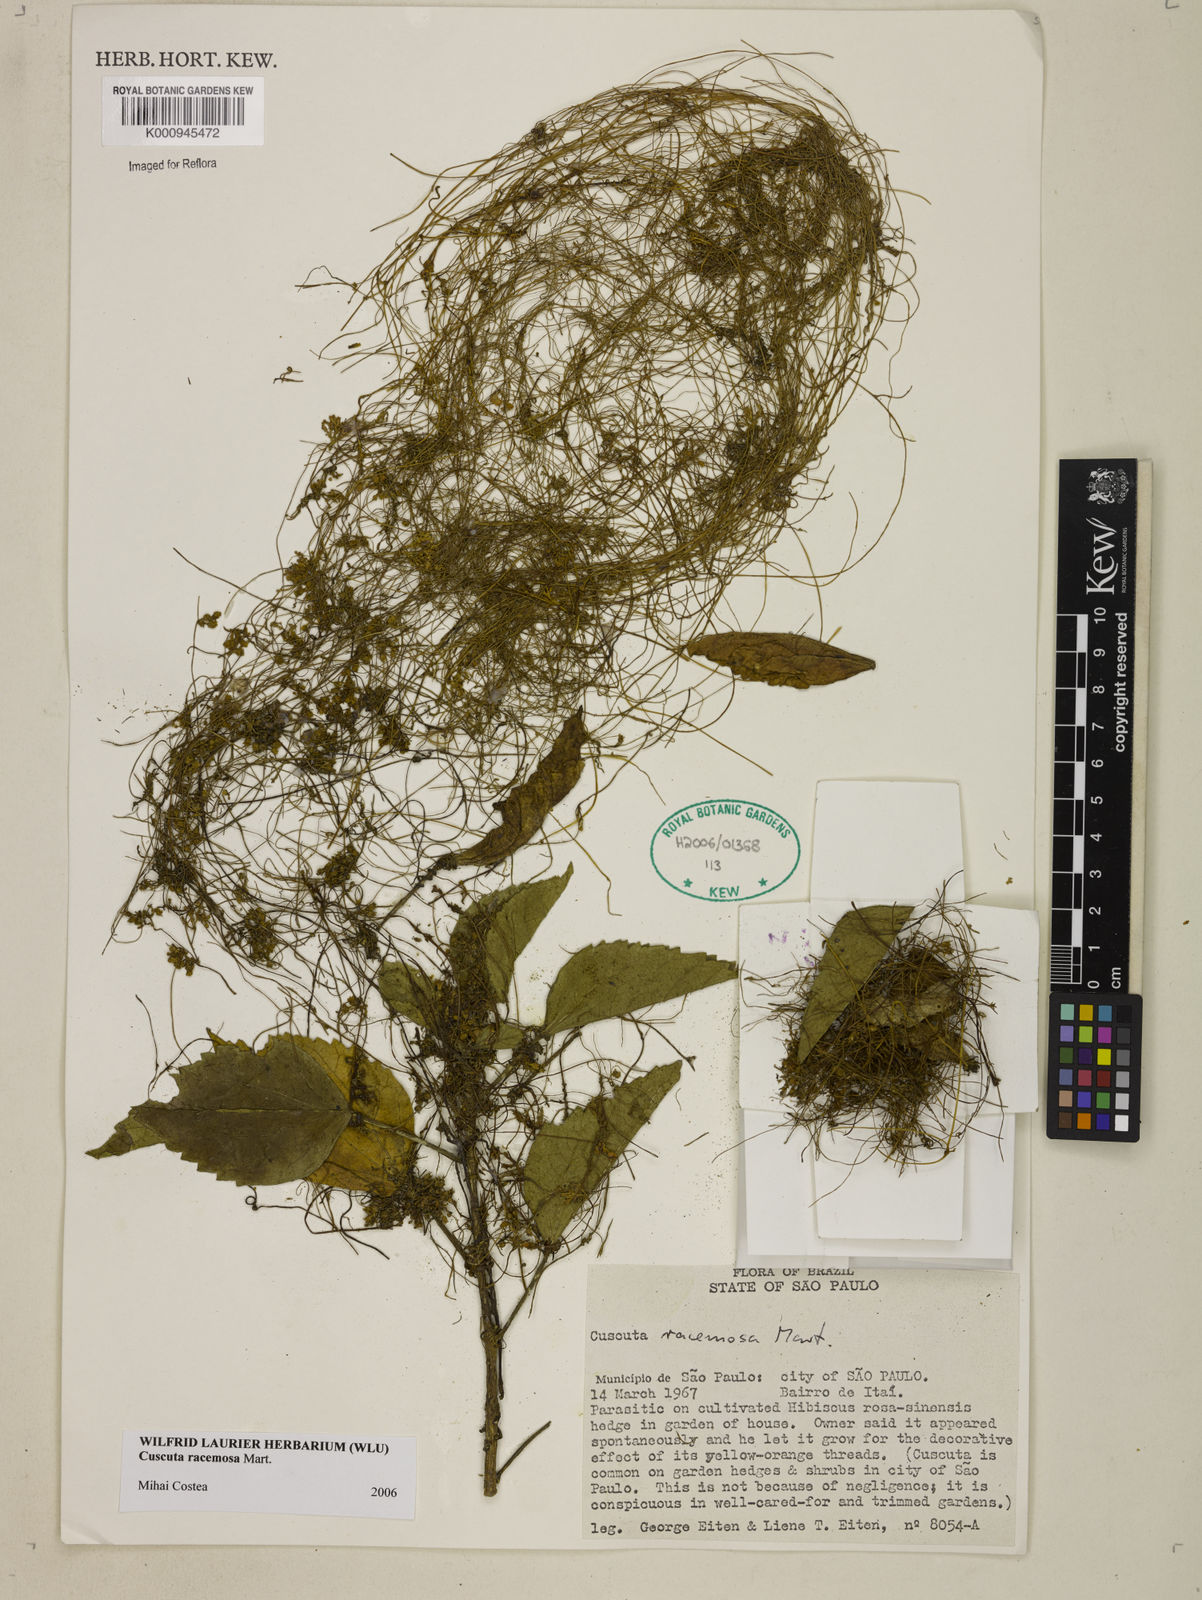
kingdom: Plantae
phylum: Tracheophyta
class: Magnoliopsida
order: Solanales
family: Convolvulaceae
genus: Cuscuta
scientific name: Cuscuta racemosa
